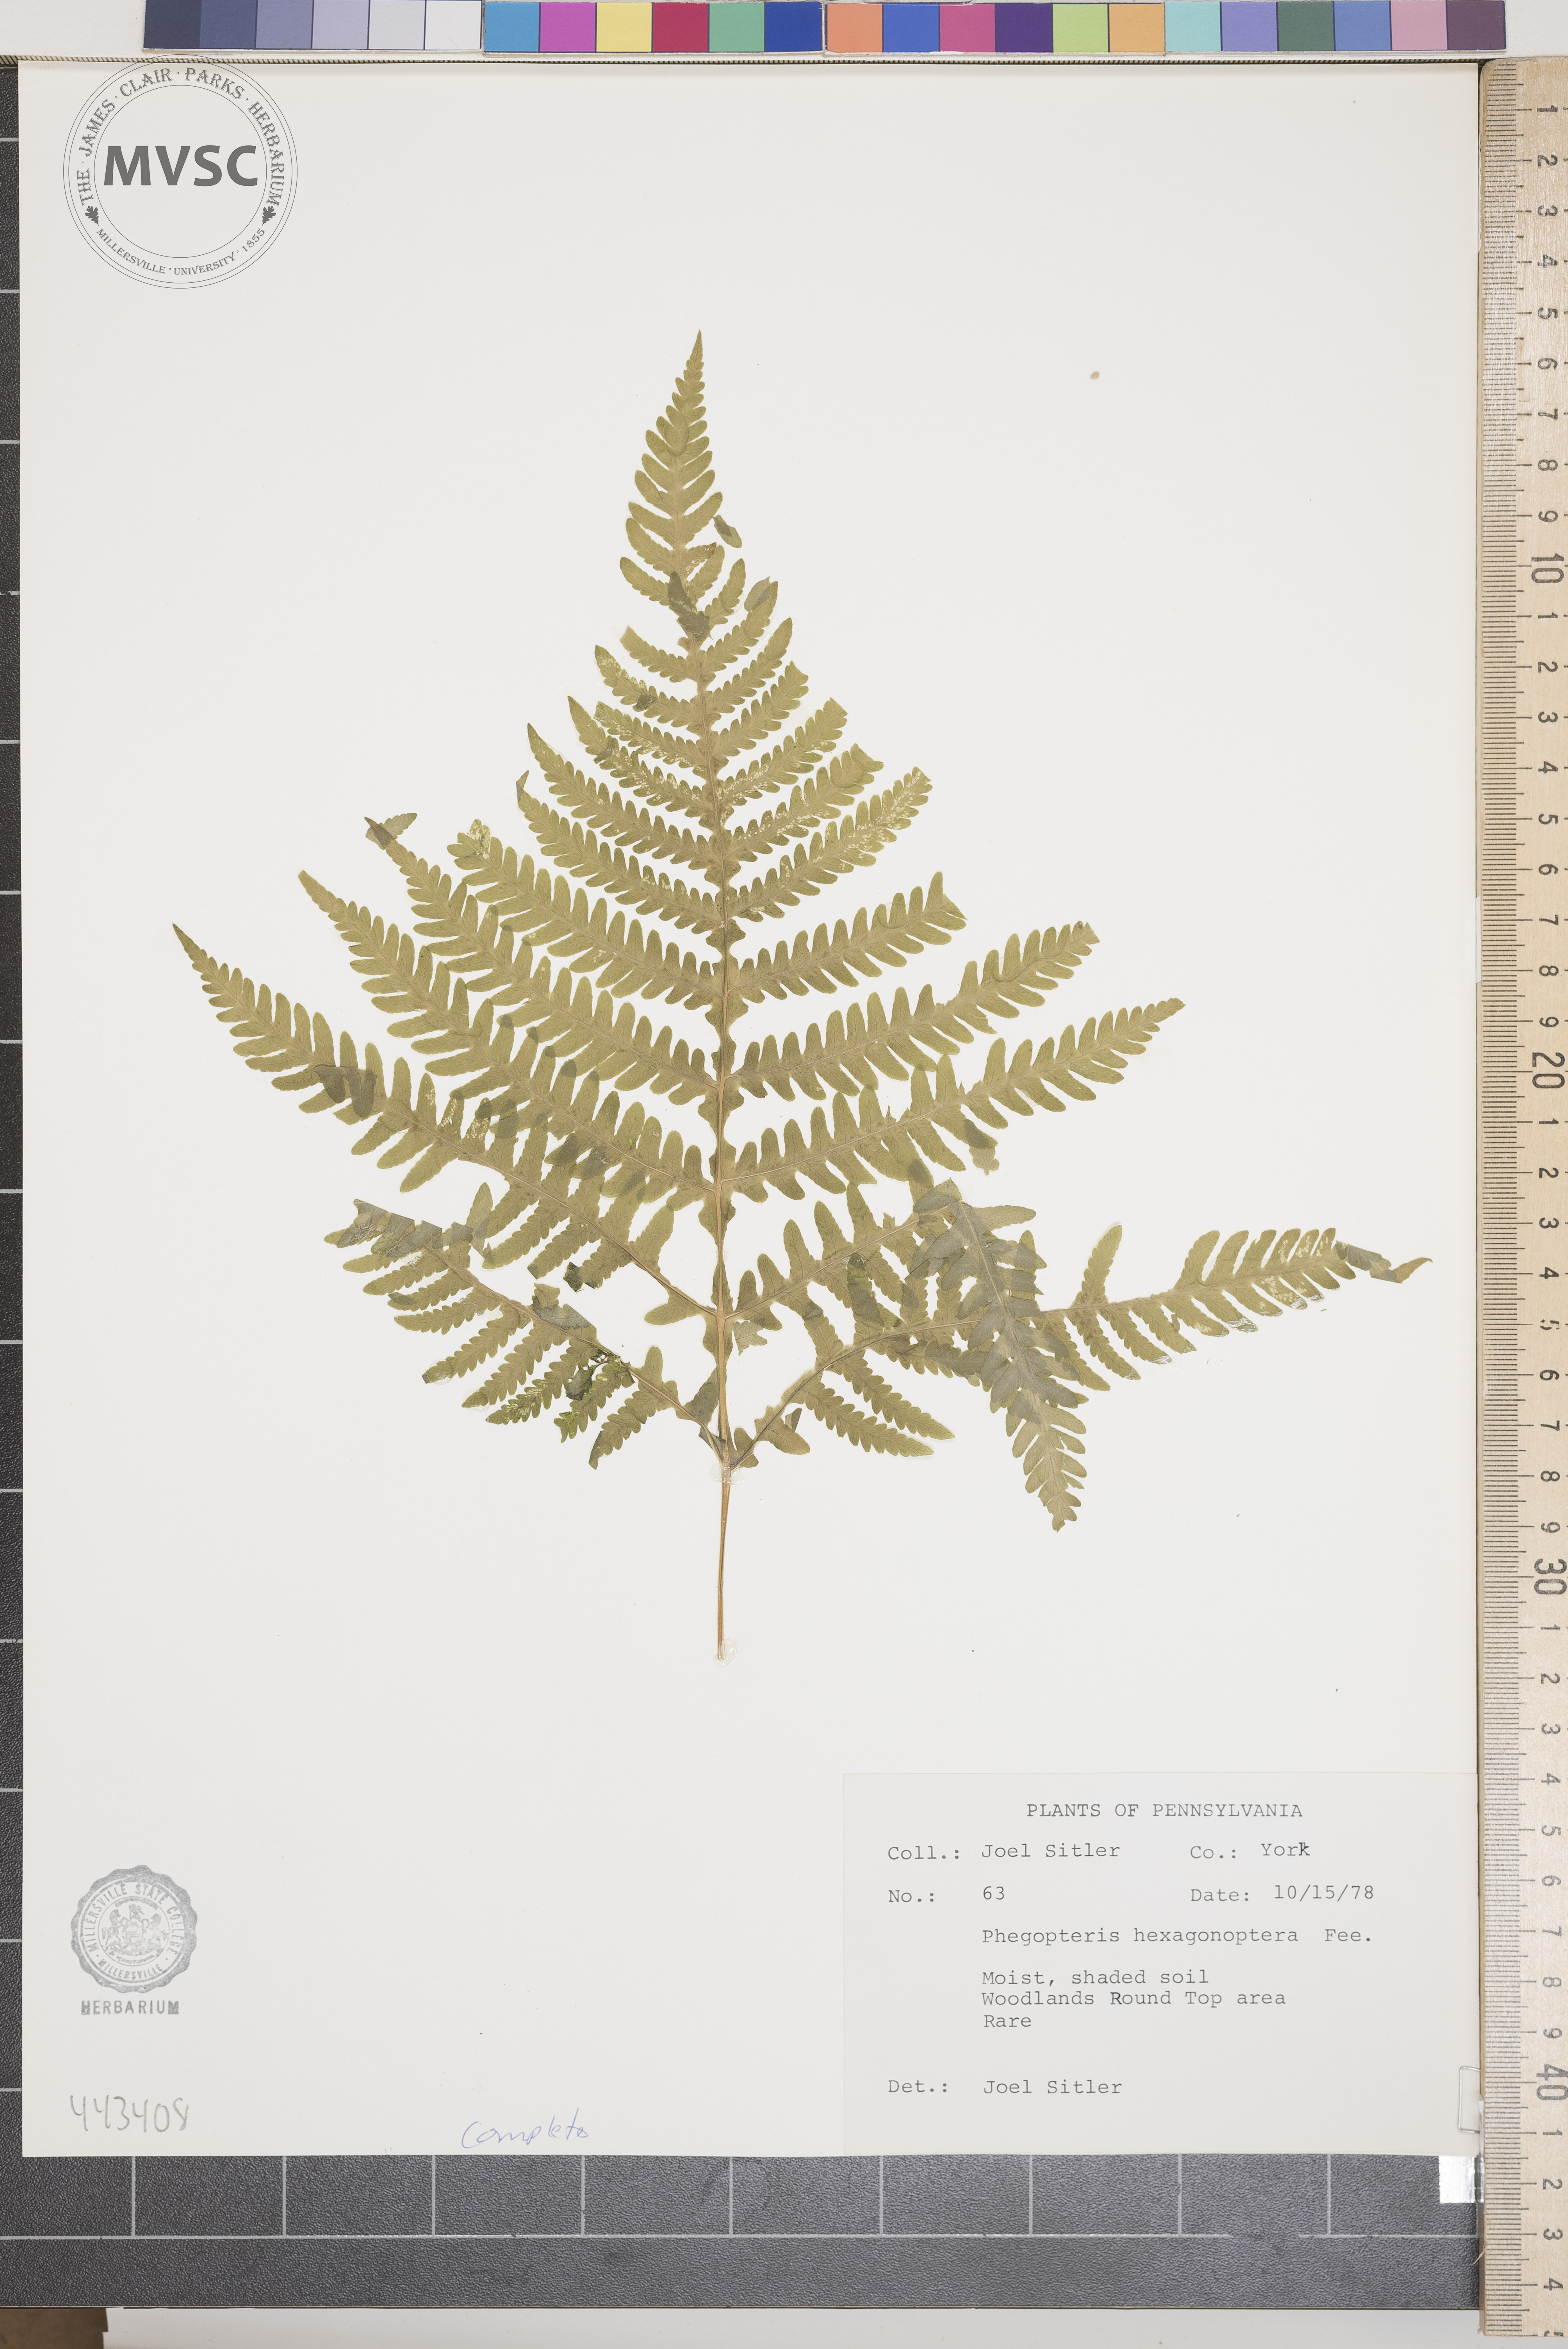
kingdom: Plantae
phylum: Tracheophyta
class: Polypodiopsida
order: Polypodiales
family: Thelypteridaceae
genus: Phegopteris
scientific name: Phegopteris hexagonoptera
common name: Broad beech fern
